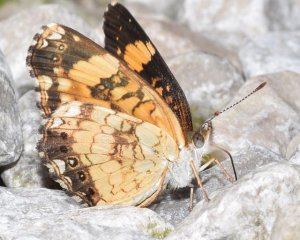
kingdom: Animalia
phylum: Arthropoda
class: Insecta
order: Lepidoptera
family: Nymphalidae
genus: Chlosyne
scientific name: Chlosyne nycteis
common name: Silvery Checkerspot
